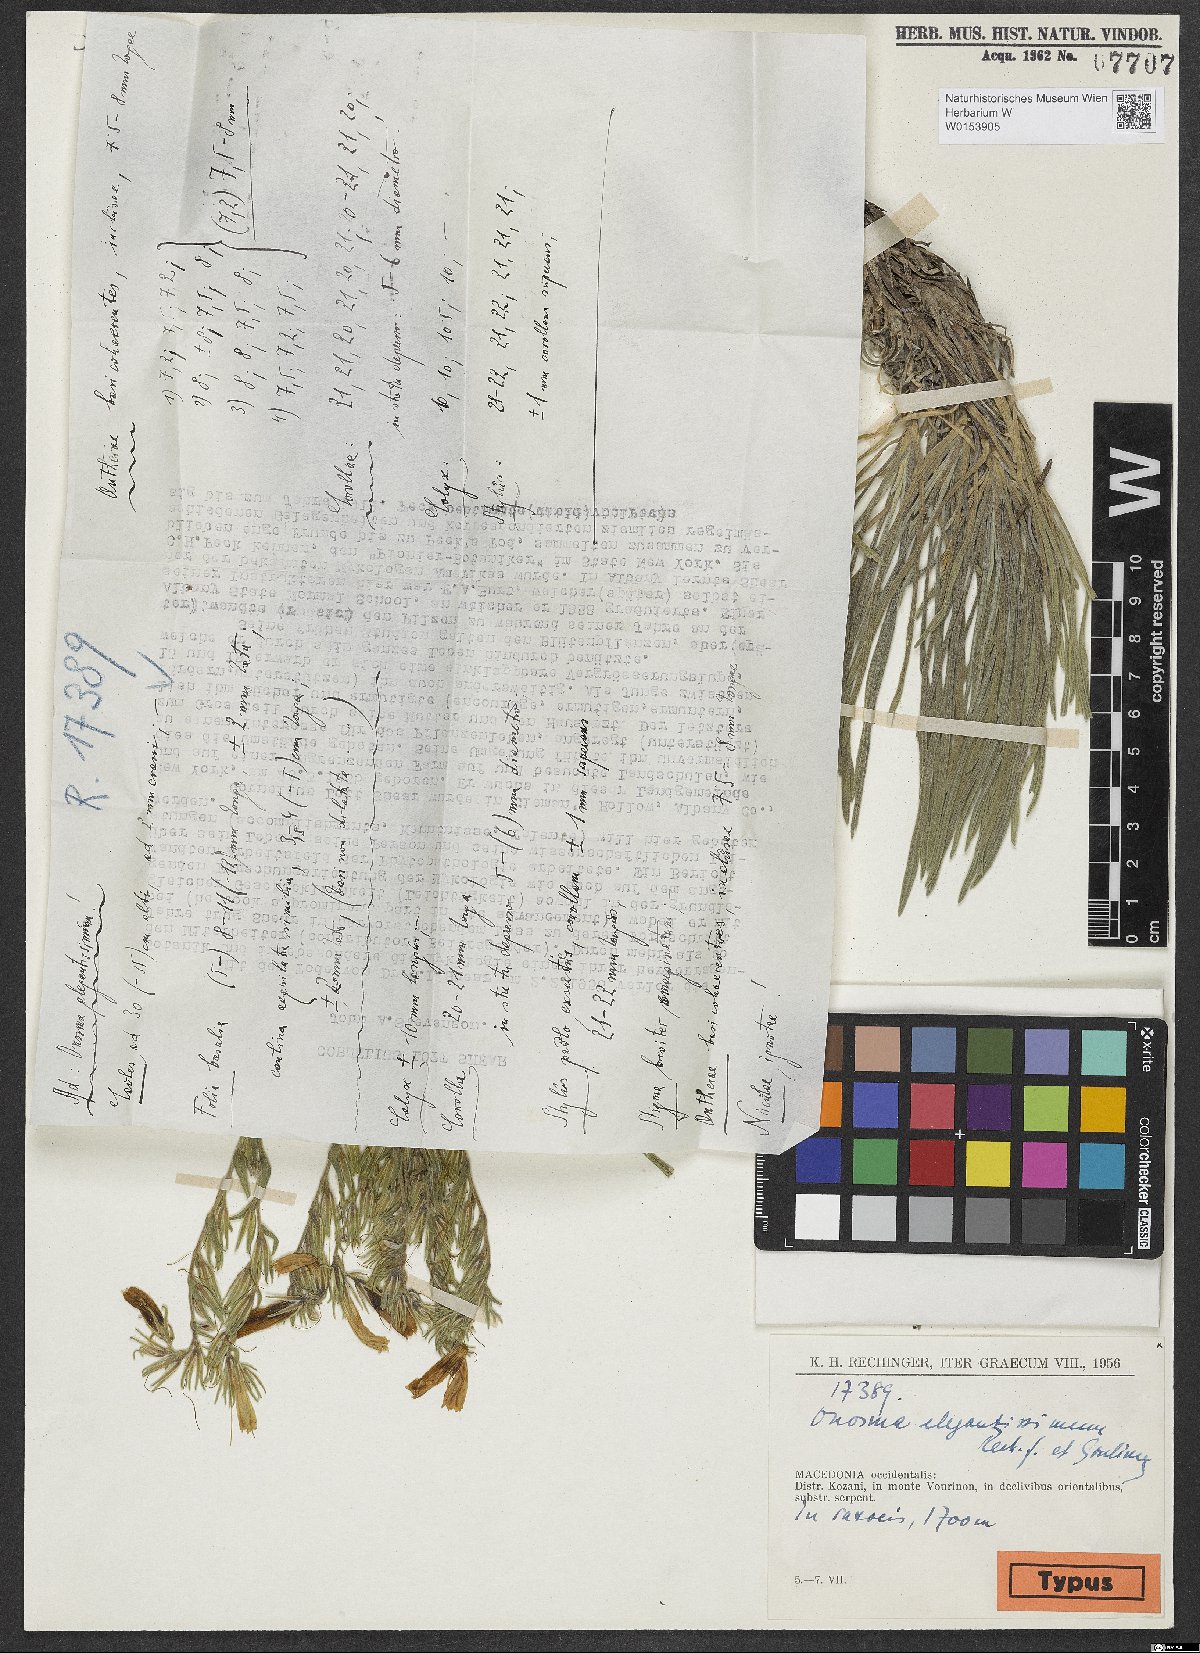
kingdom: Plantae
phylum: Tracheophyta
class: Magnoliopsida
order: Boraginales
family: Boraginaceae
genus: Onosma
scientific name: Onosma elegantissima
